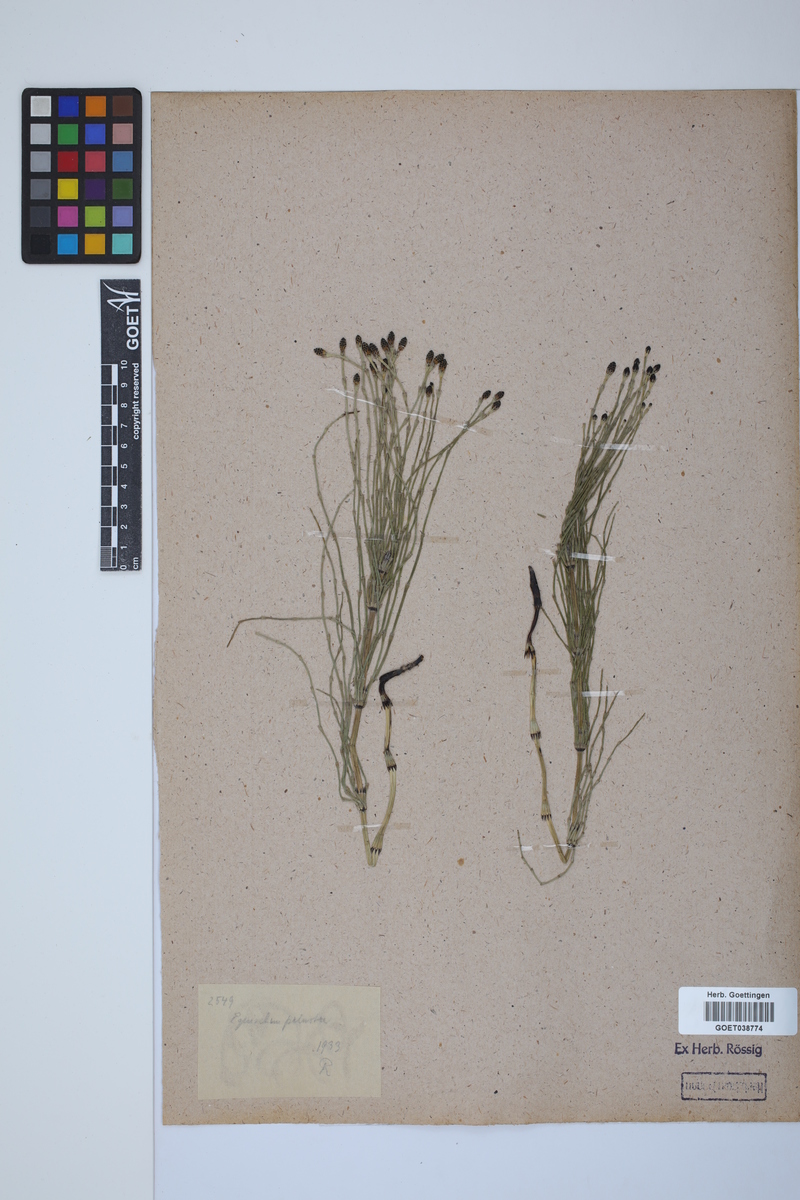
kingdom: Plantae
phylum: Tracheophyta
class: Polypodiopsida
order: Equisetales
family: Equisetaceae
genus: Equisetum
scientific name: Equisetum palustre
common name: Marsh horsetail
